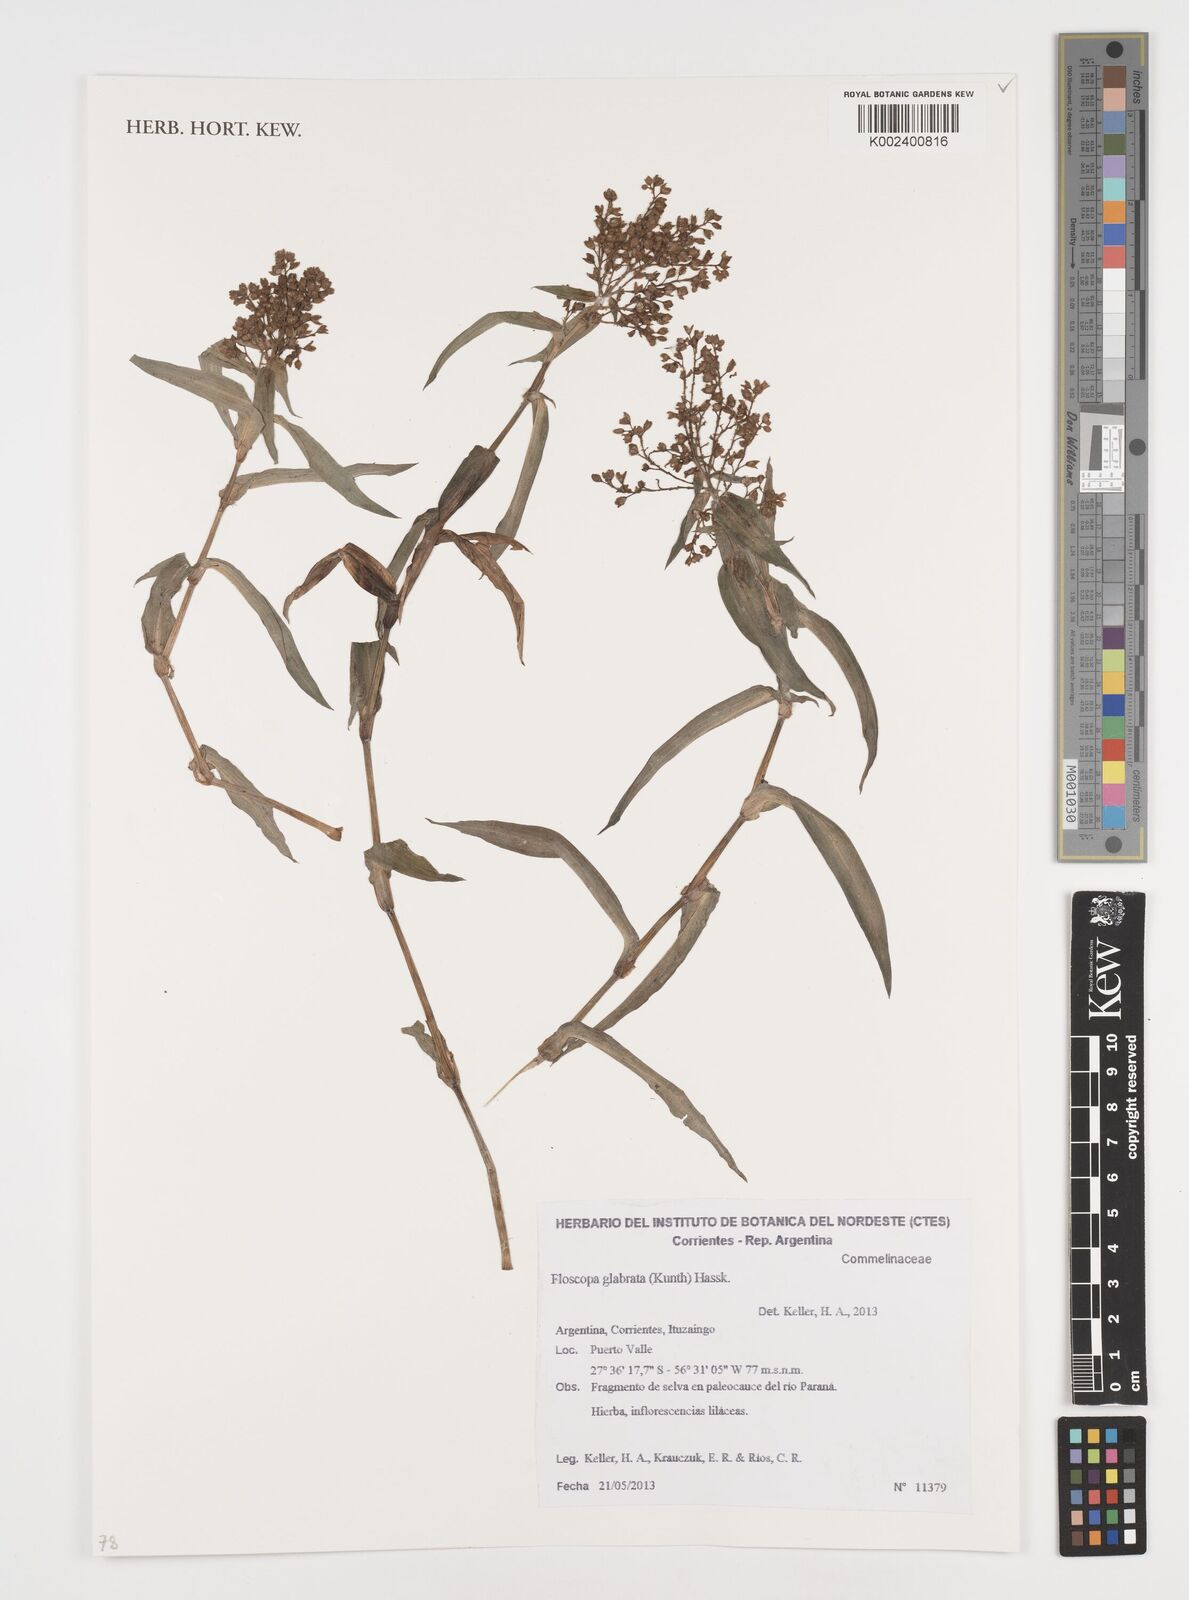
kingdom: Plantae
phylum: Tracheophyta
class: Liliopsida
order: Commelinales
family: Commelinaceae
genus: Floscopa
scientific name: Floscopa glabrata
